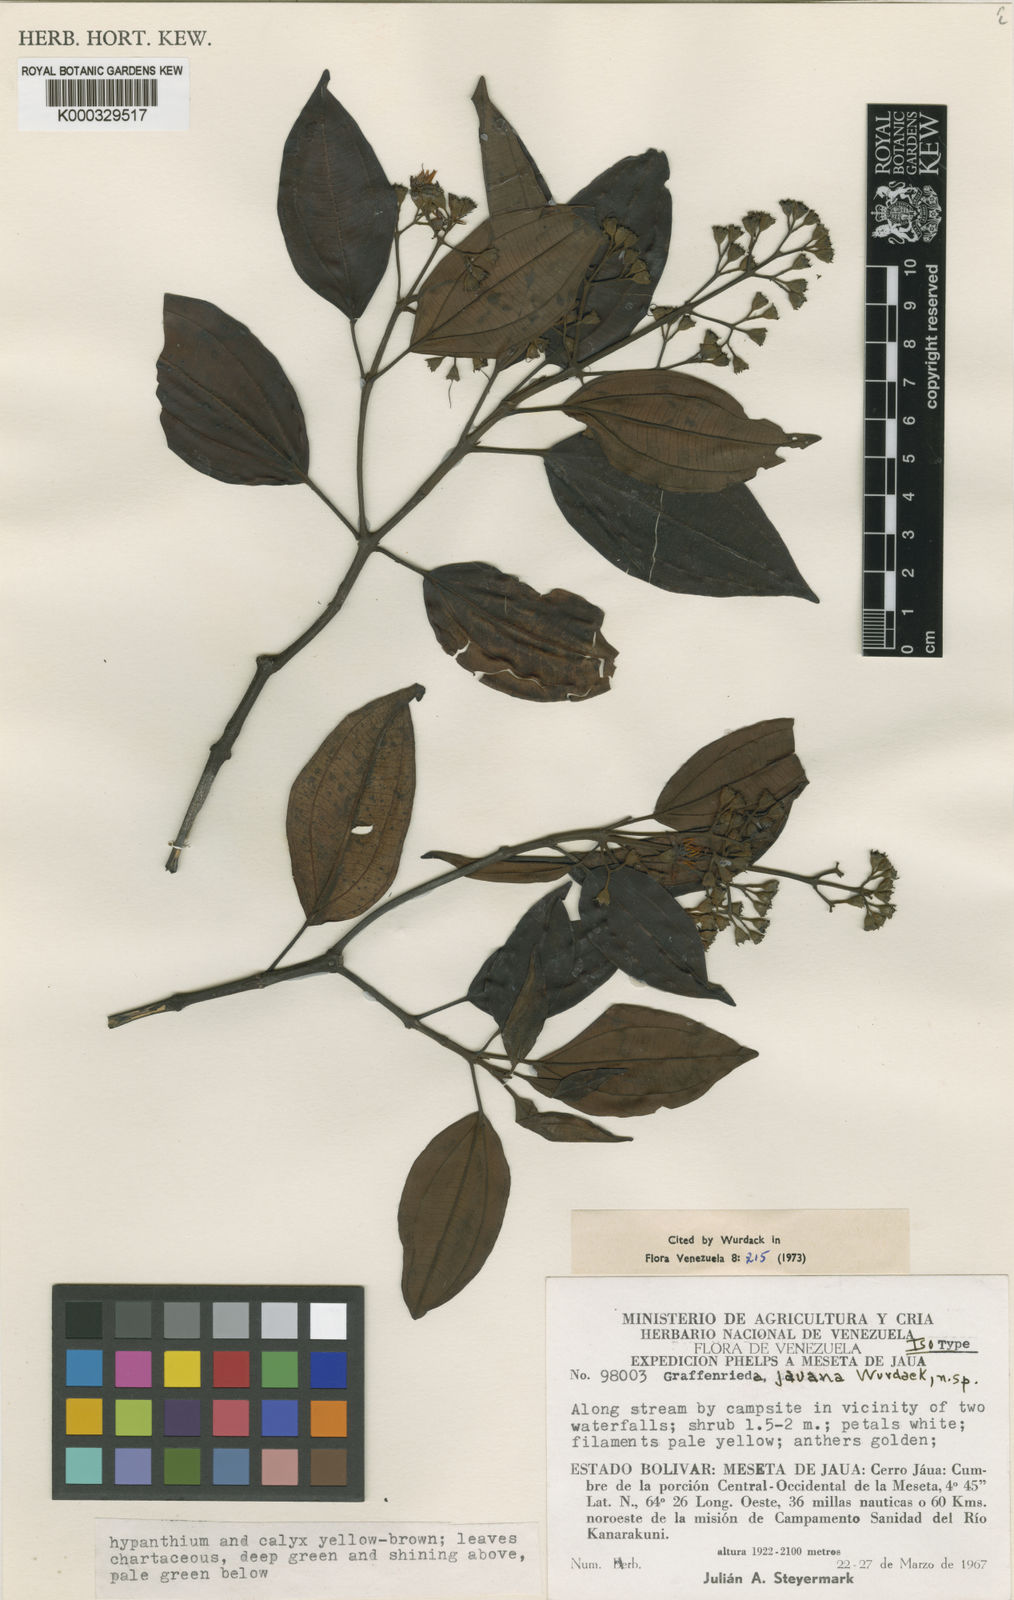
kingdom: Plantae
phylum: Tracheophyta
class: Magnoliopsida
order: Myrtales
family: Melastomataceae
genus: Graffenrieda
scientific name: Graffenrieda jauana
